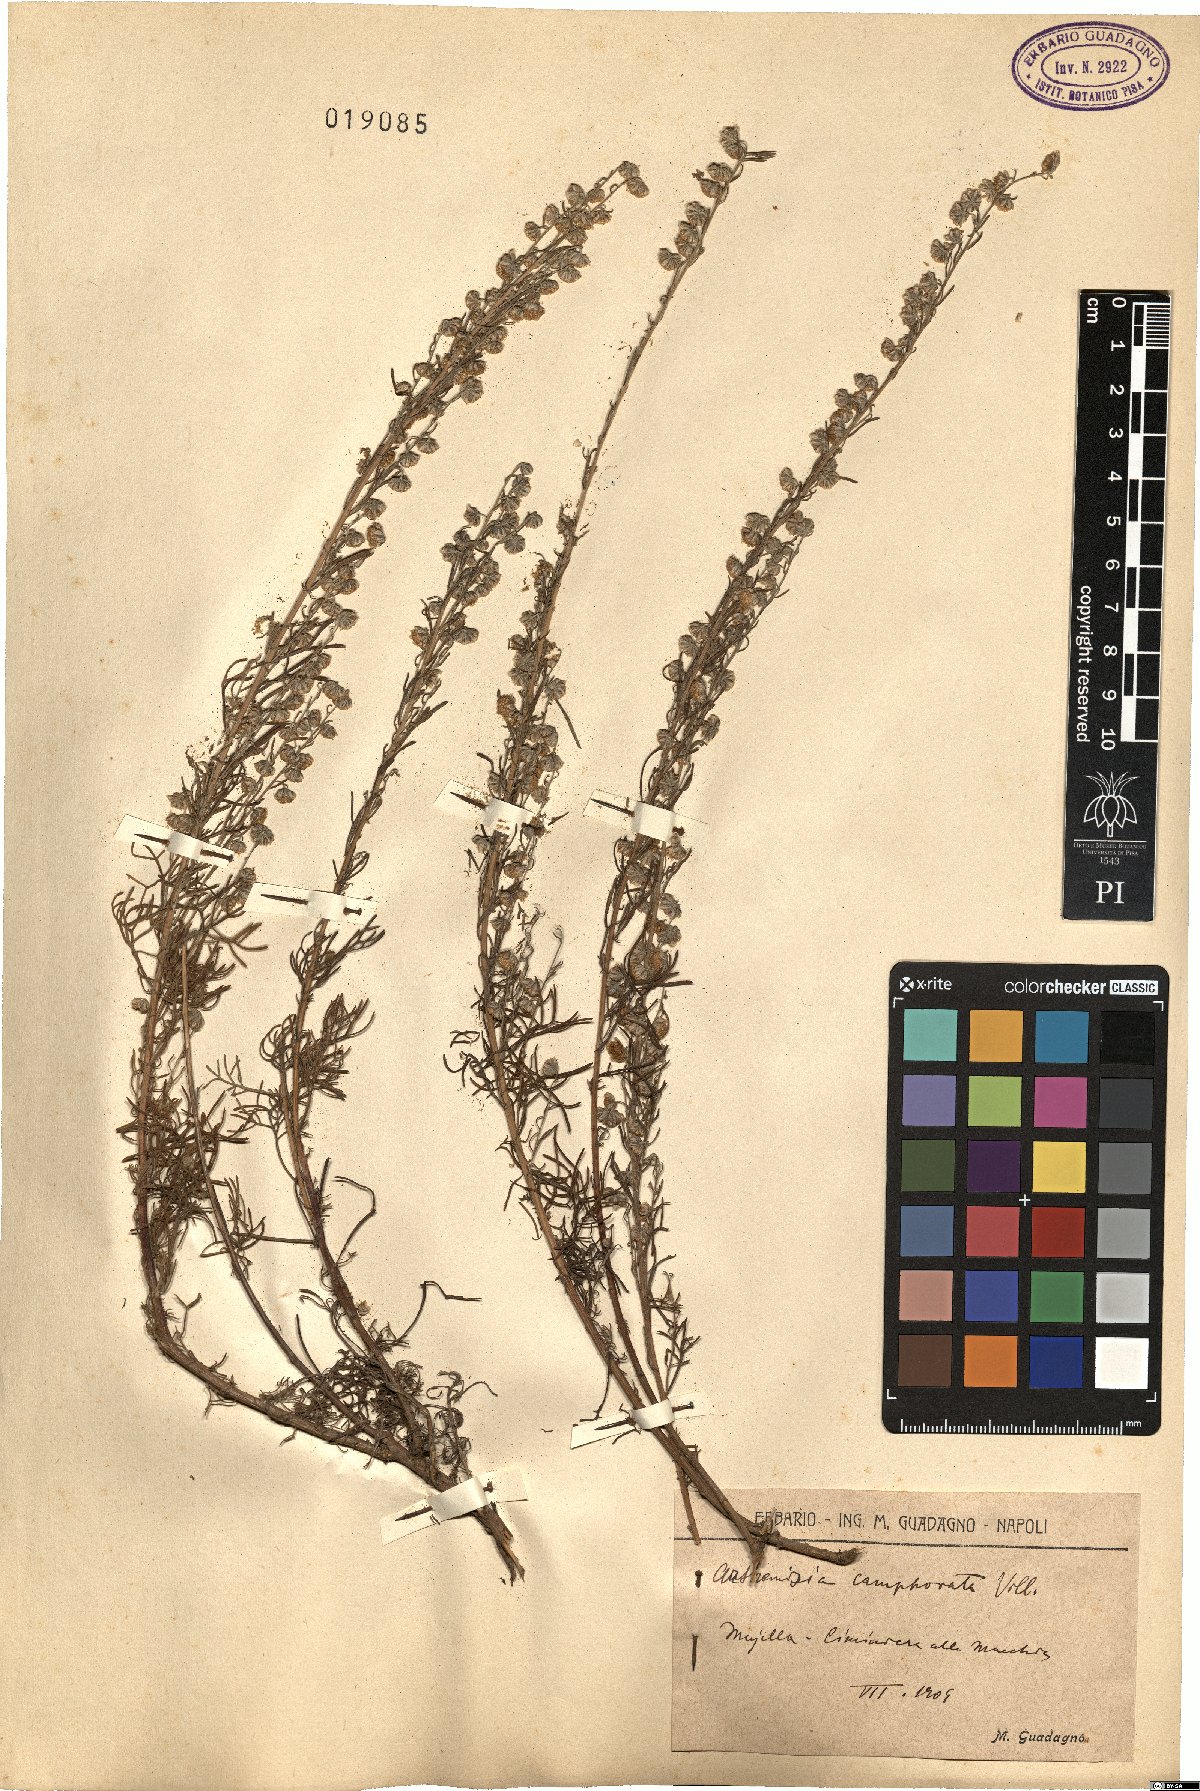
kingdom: Plantae
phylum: Tracheophyta
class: Magnoliopsida
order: Asterales
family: Asteraceae
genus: Artemisia
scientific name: Artemisia alba
